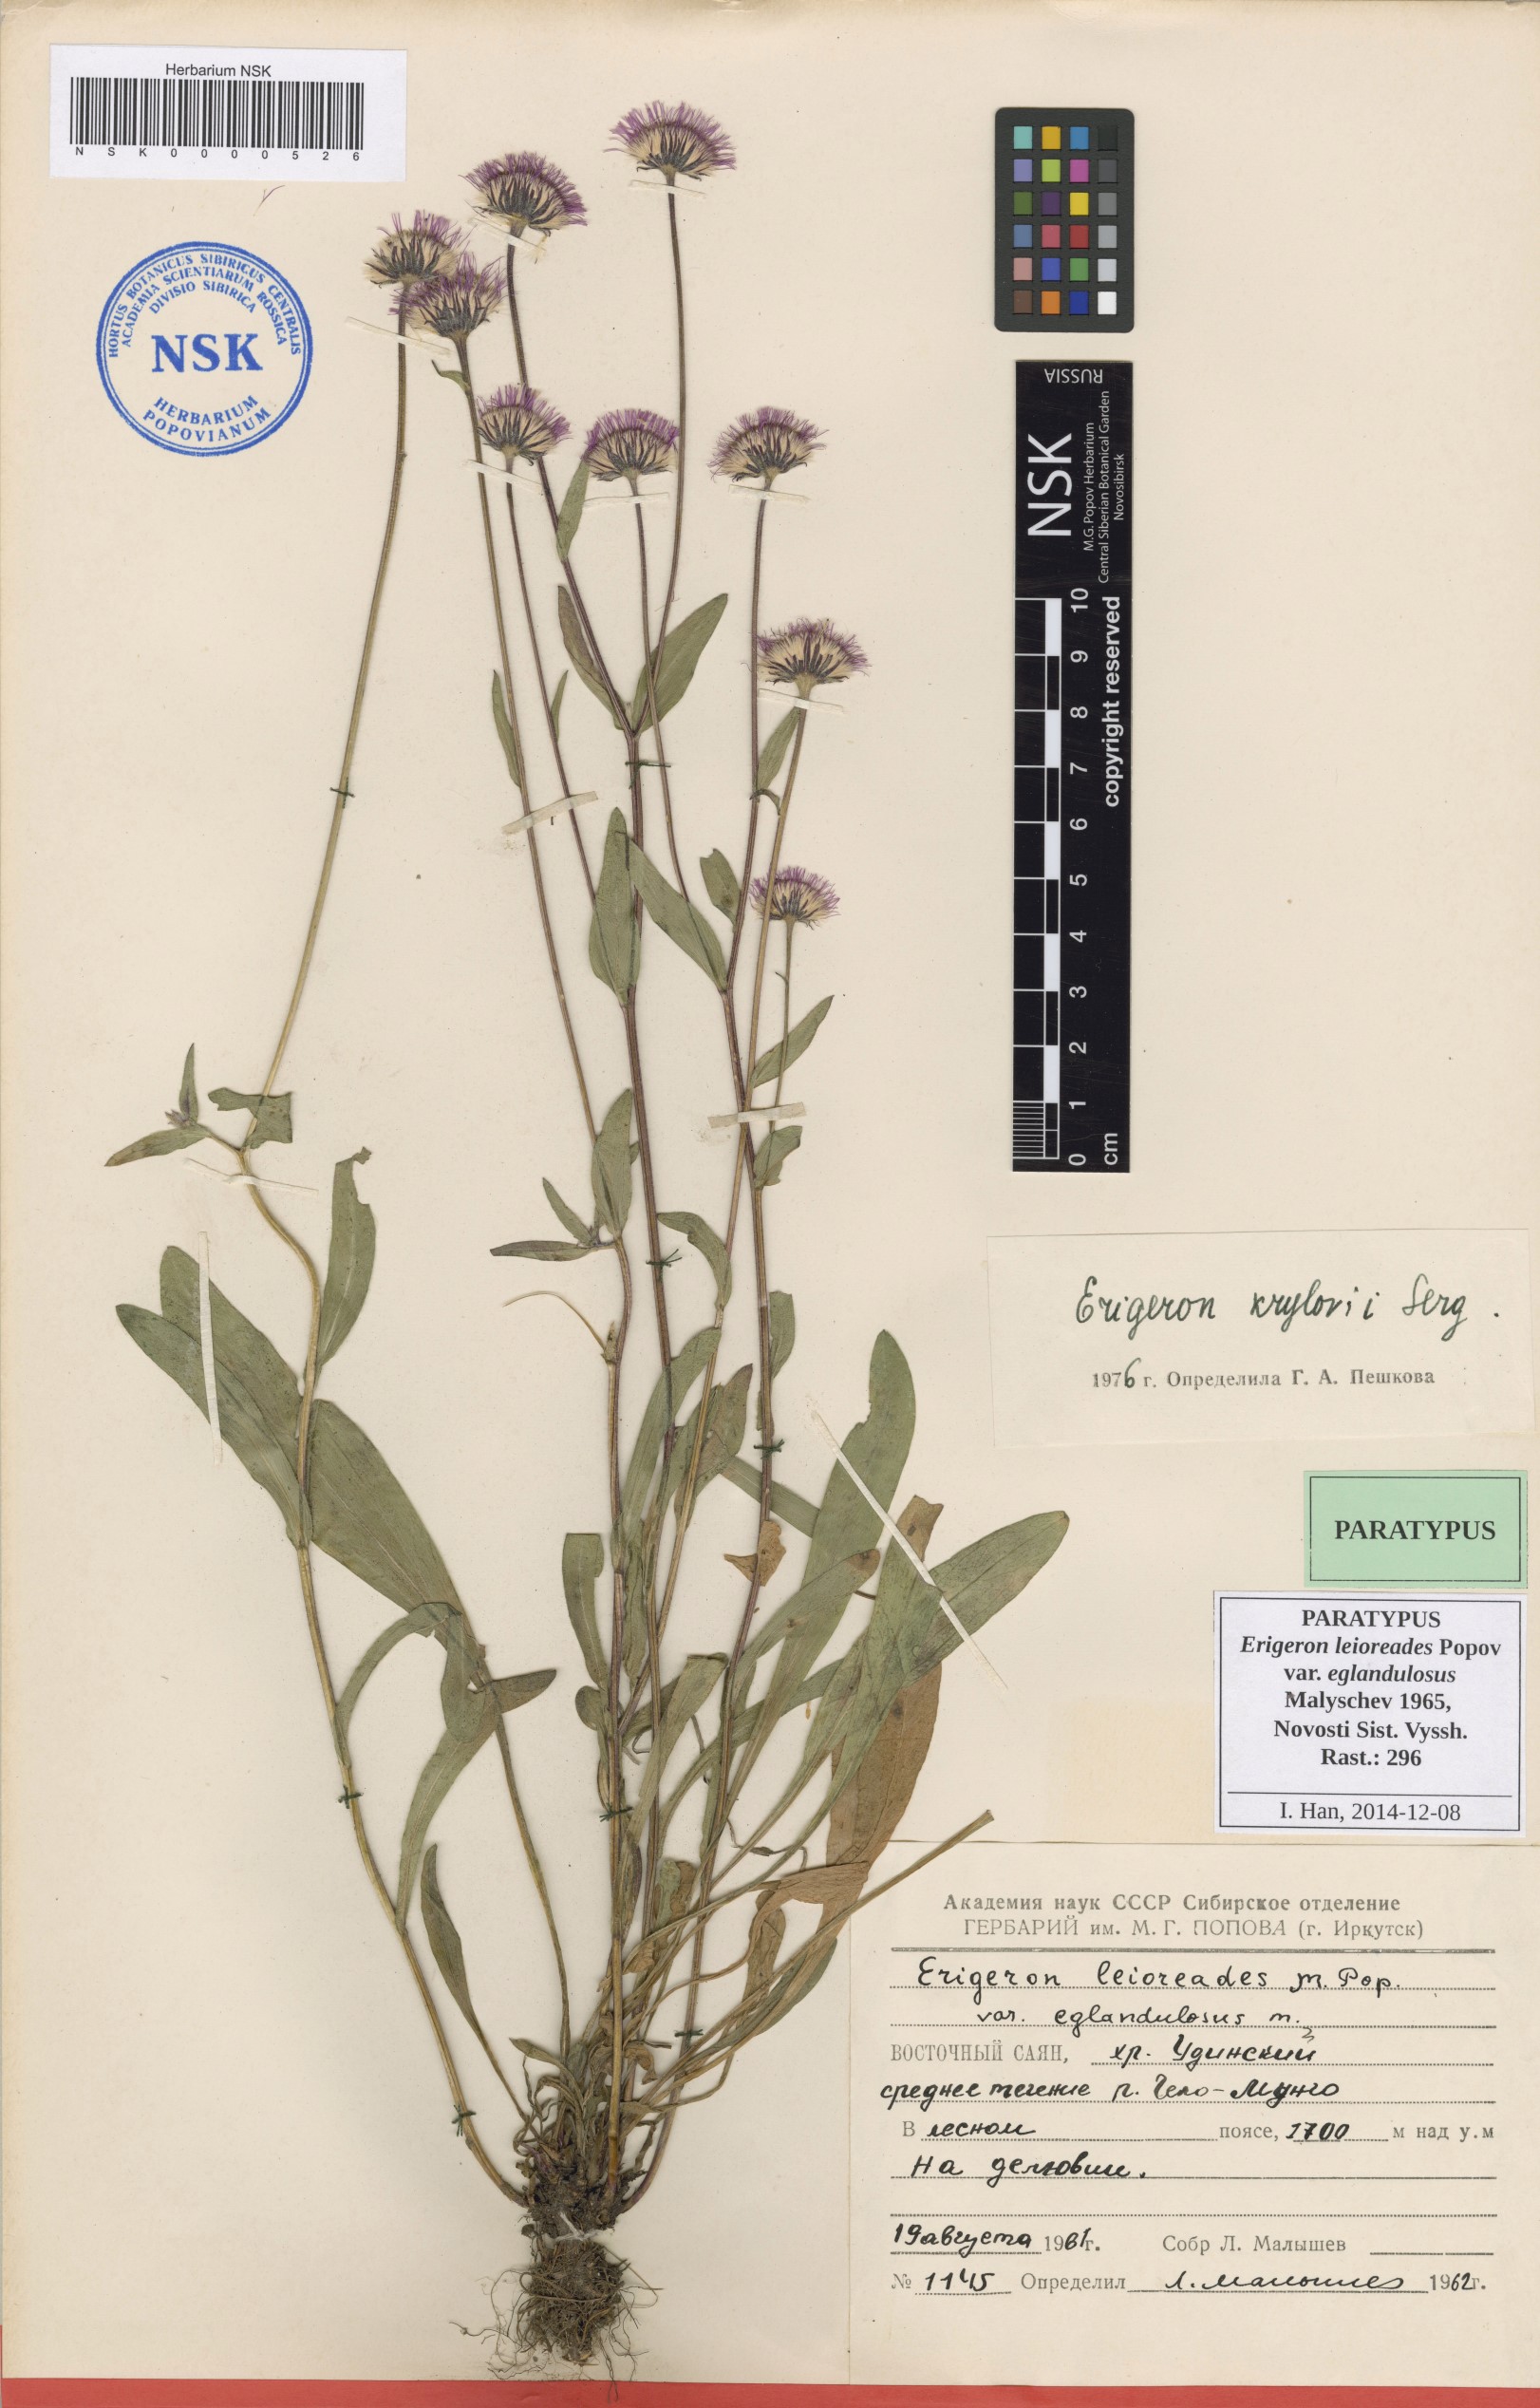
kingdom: Plantae
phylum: Tracheophyta
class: Magnoliopsida
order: Asterales
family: Asteraceae
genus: Erigeron
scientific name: Erigeron leioreades
